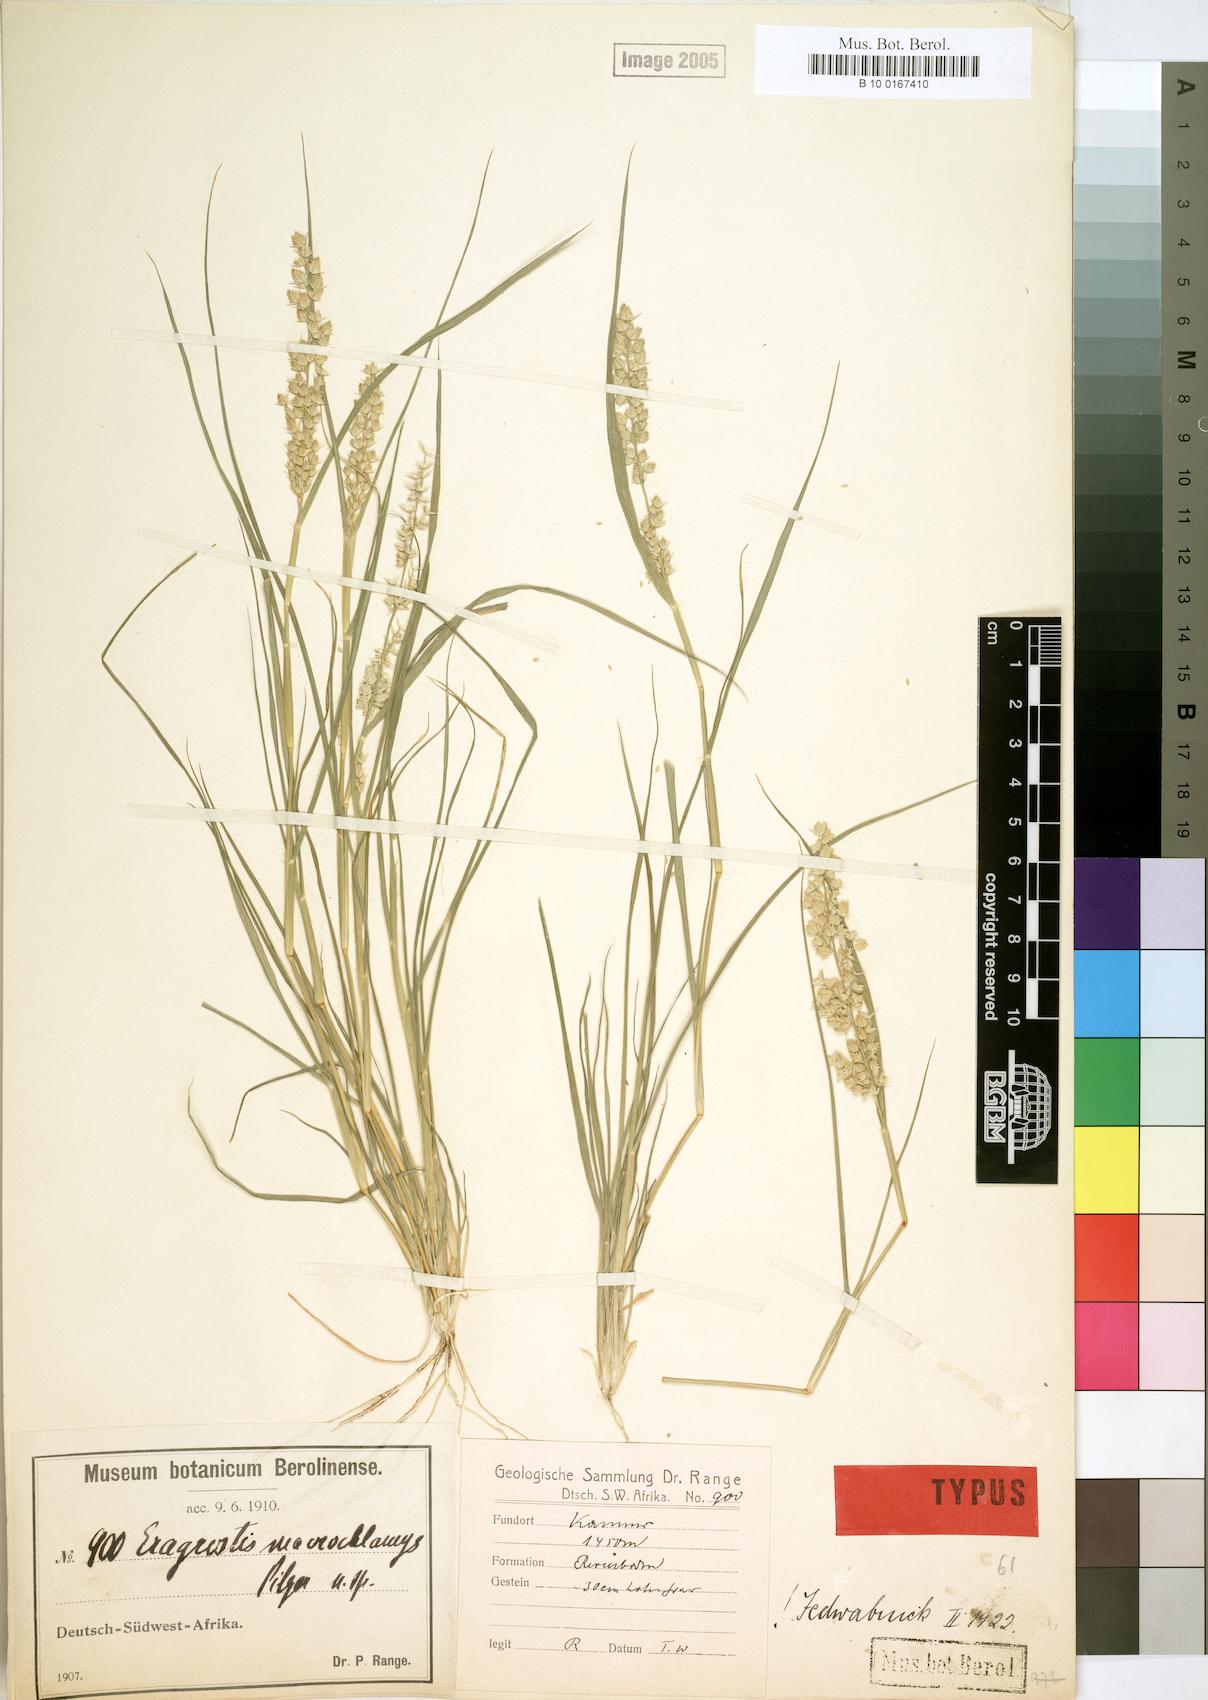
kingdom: Plantae
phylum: Tracheophyta
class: Liliopsida
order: Poales
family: Poaceae
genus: Eragrostis
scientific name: Eragrostis macrochlamys
